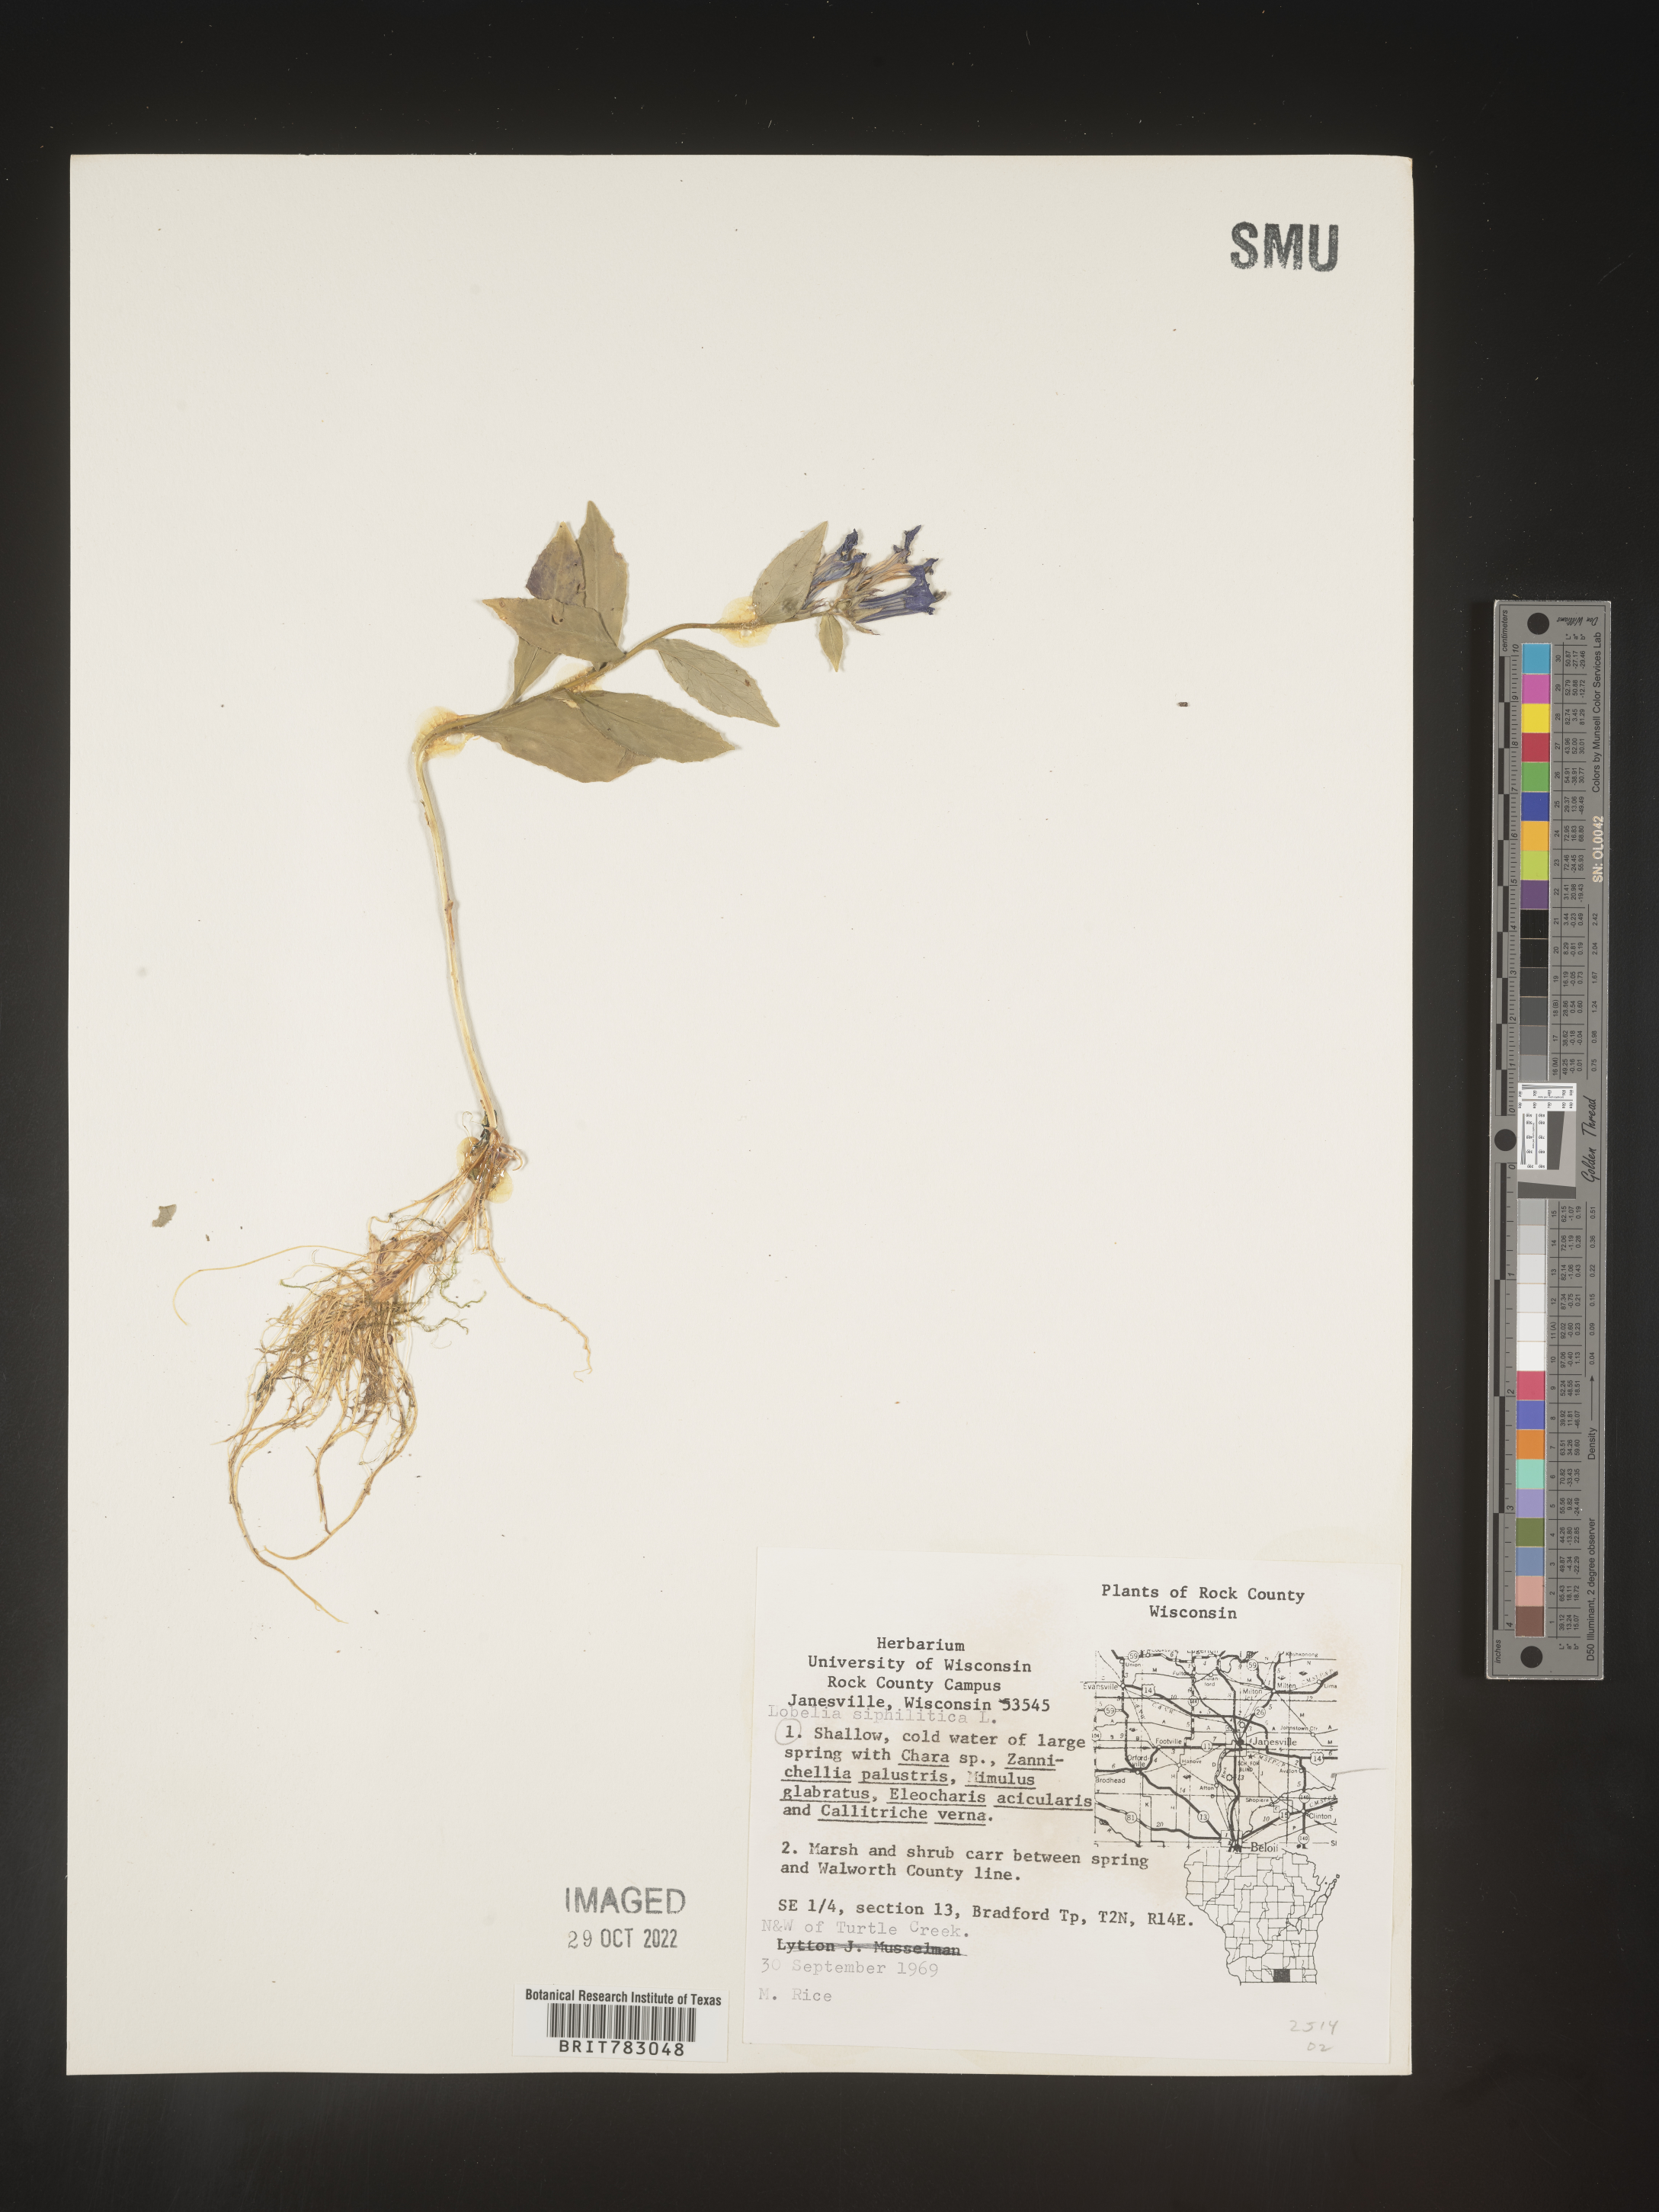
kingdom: Plantae
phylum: Tracheophyta
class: Magnoliopsida
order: Asterales
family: Campanulaceae
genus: Lobelia
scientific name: Lobelia siphilitica
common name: Great lobelia
